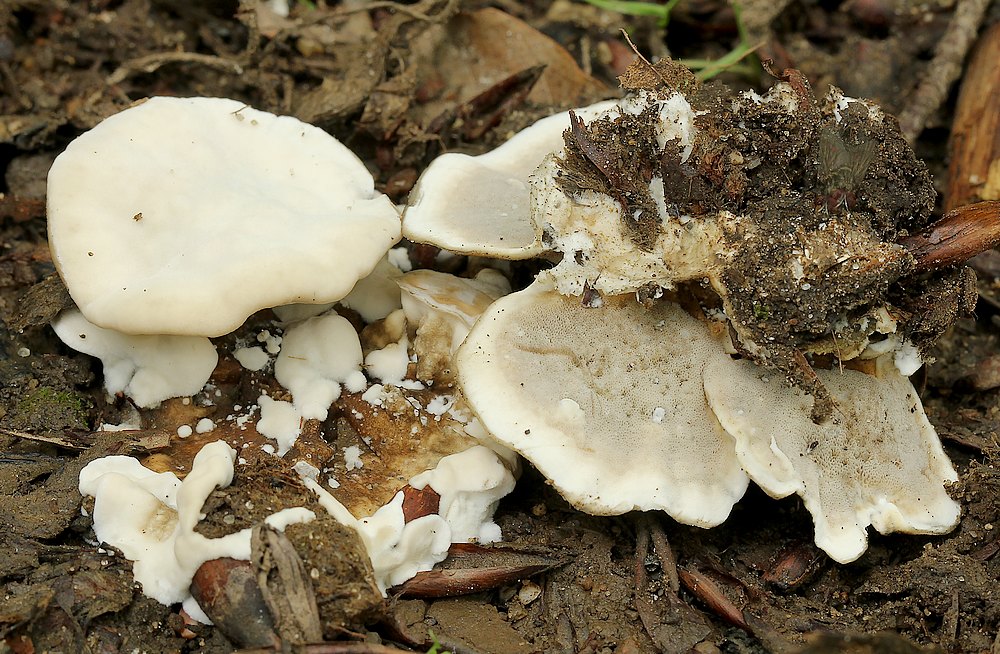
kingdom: Fungi
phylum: Basidiomycota
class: Agaricomycetes
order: Polyporales
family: Phanerochaetaceae
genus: Bjerkandera
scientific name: Bjerkandera adusta
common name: sveden sodporesvamp
